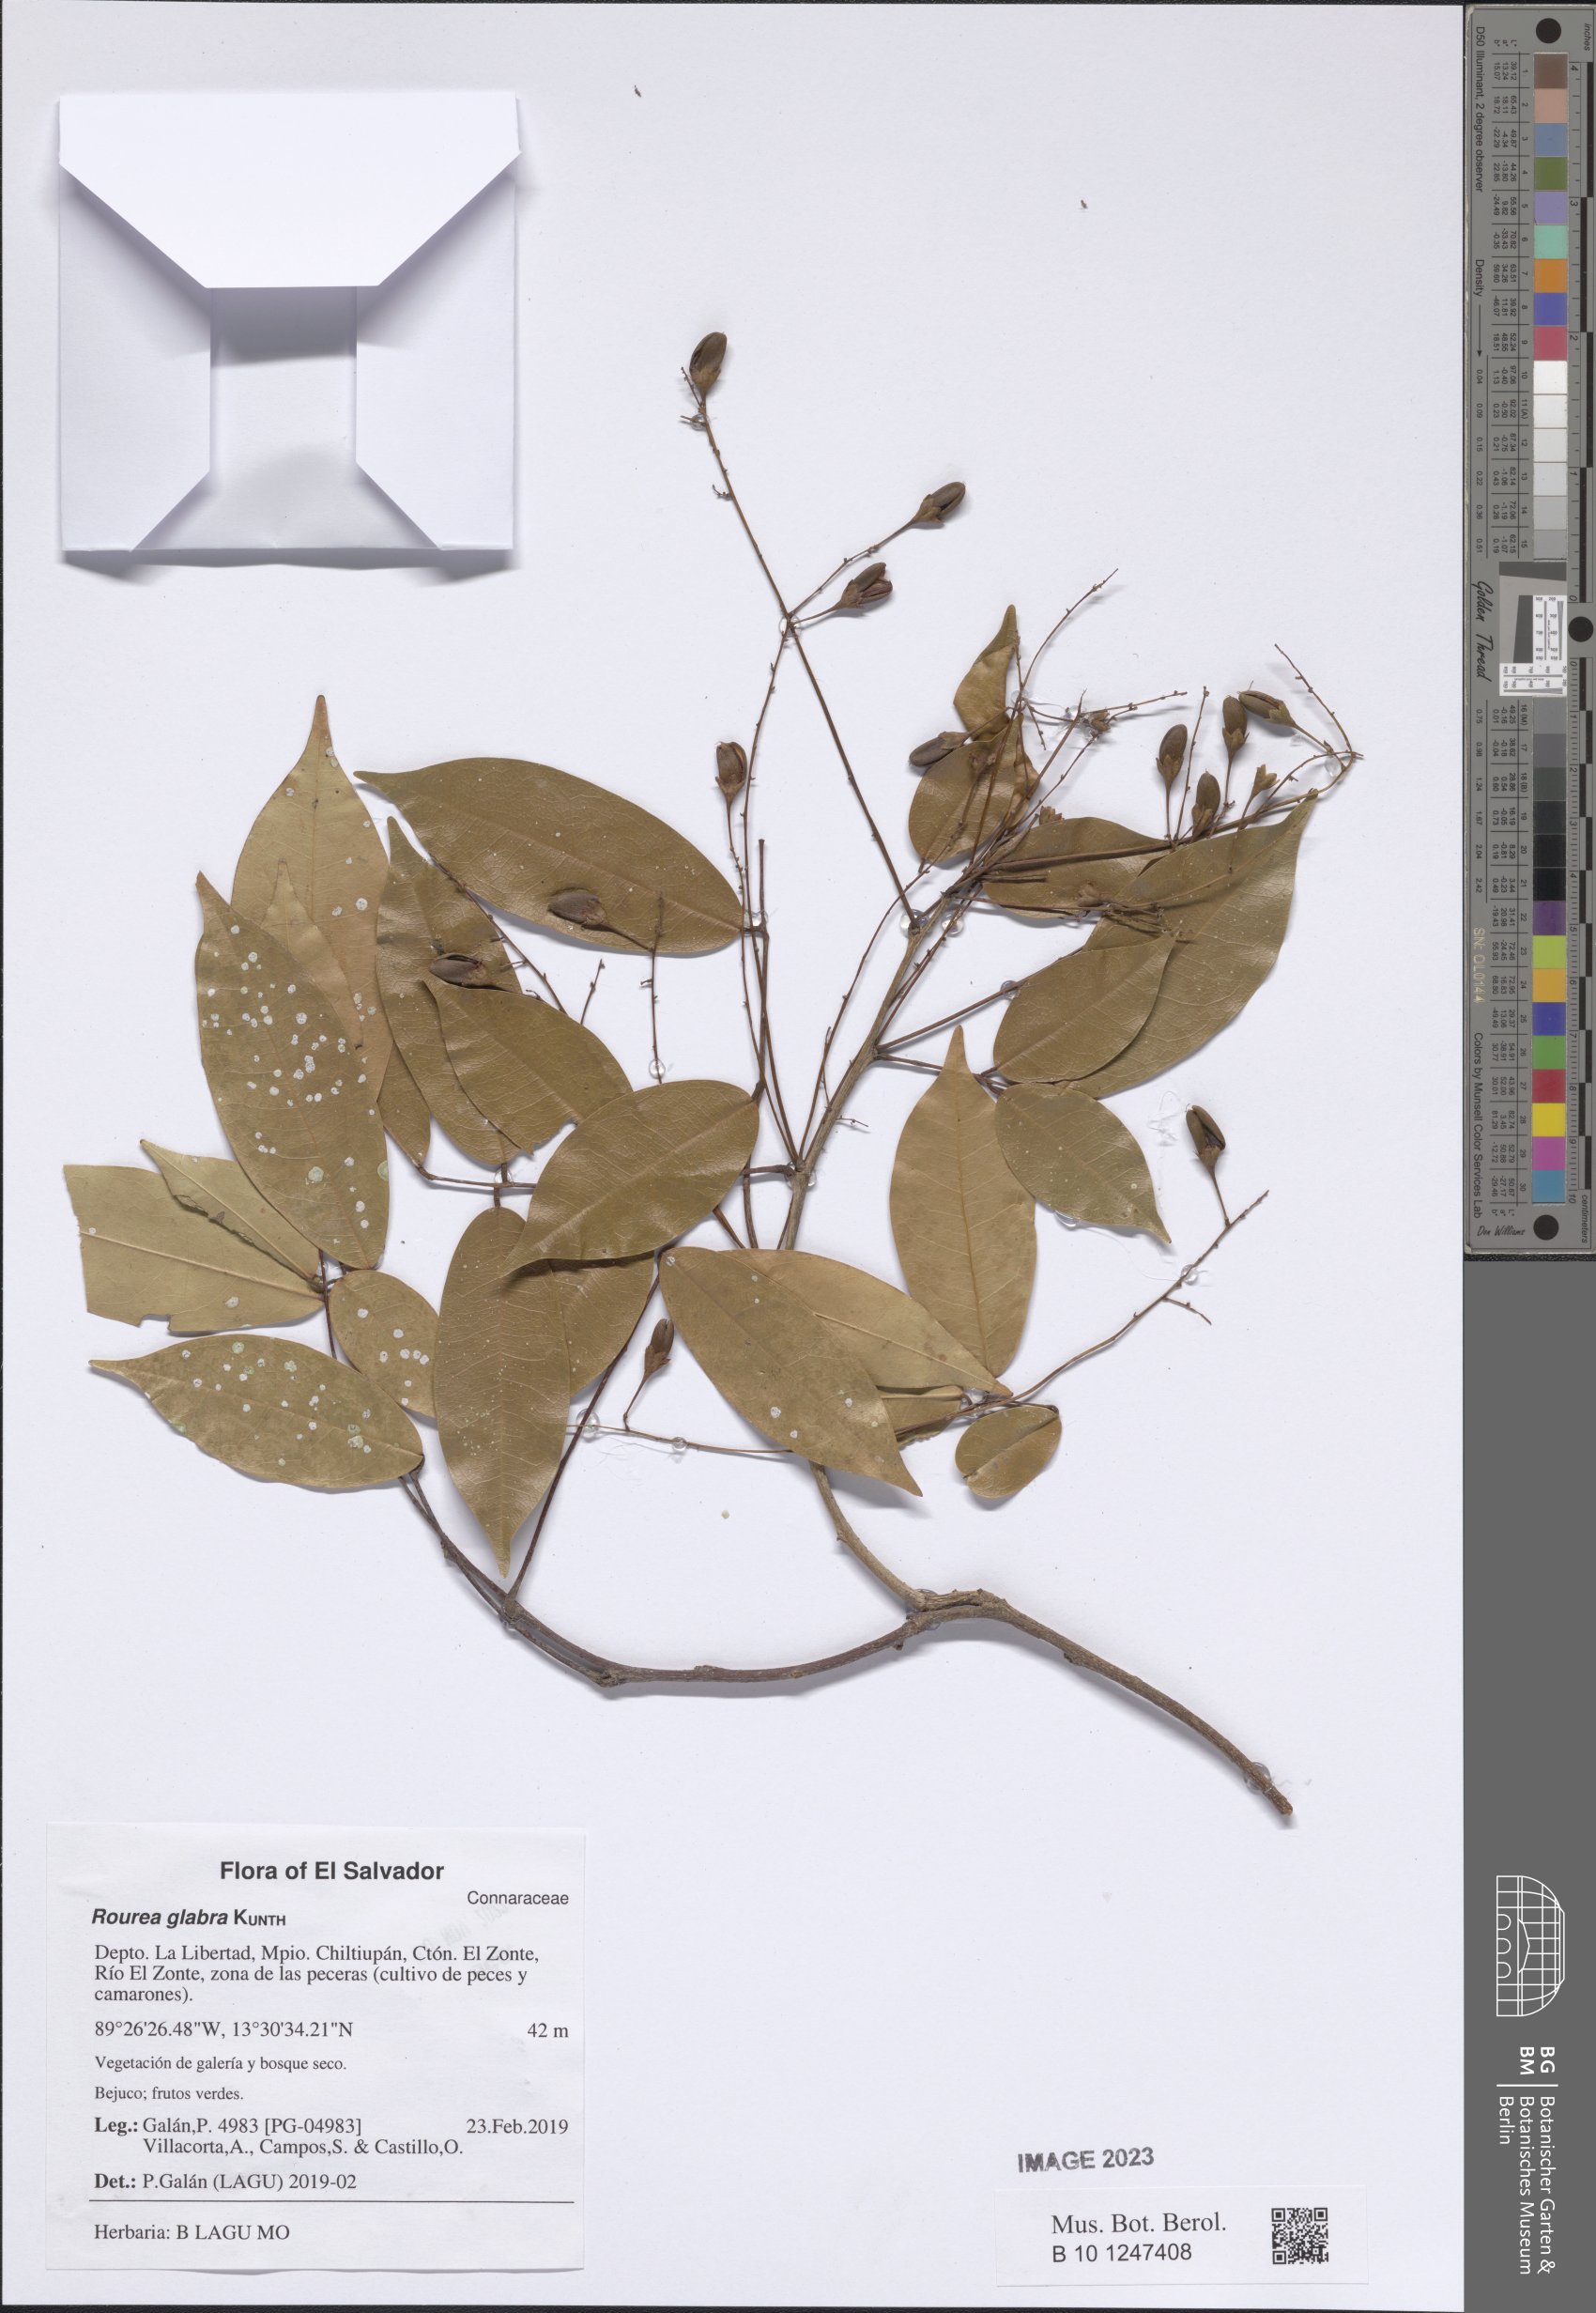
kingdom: Plantae
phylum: Tracheophyta
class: Magnoliopsida
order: Oxalidales
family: Connaraceae
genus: Rourea
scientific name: Rourea glabra
